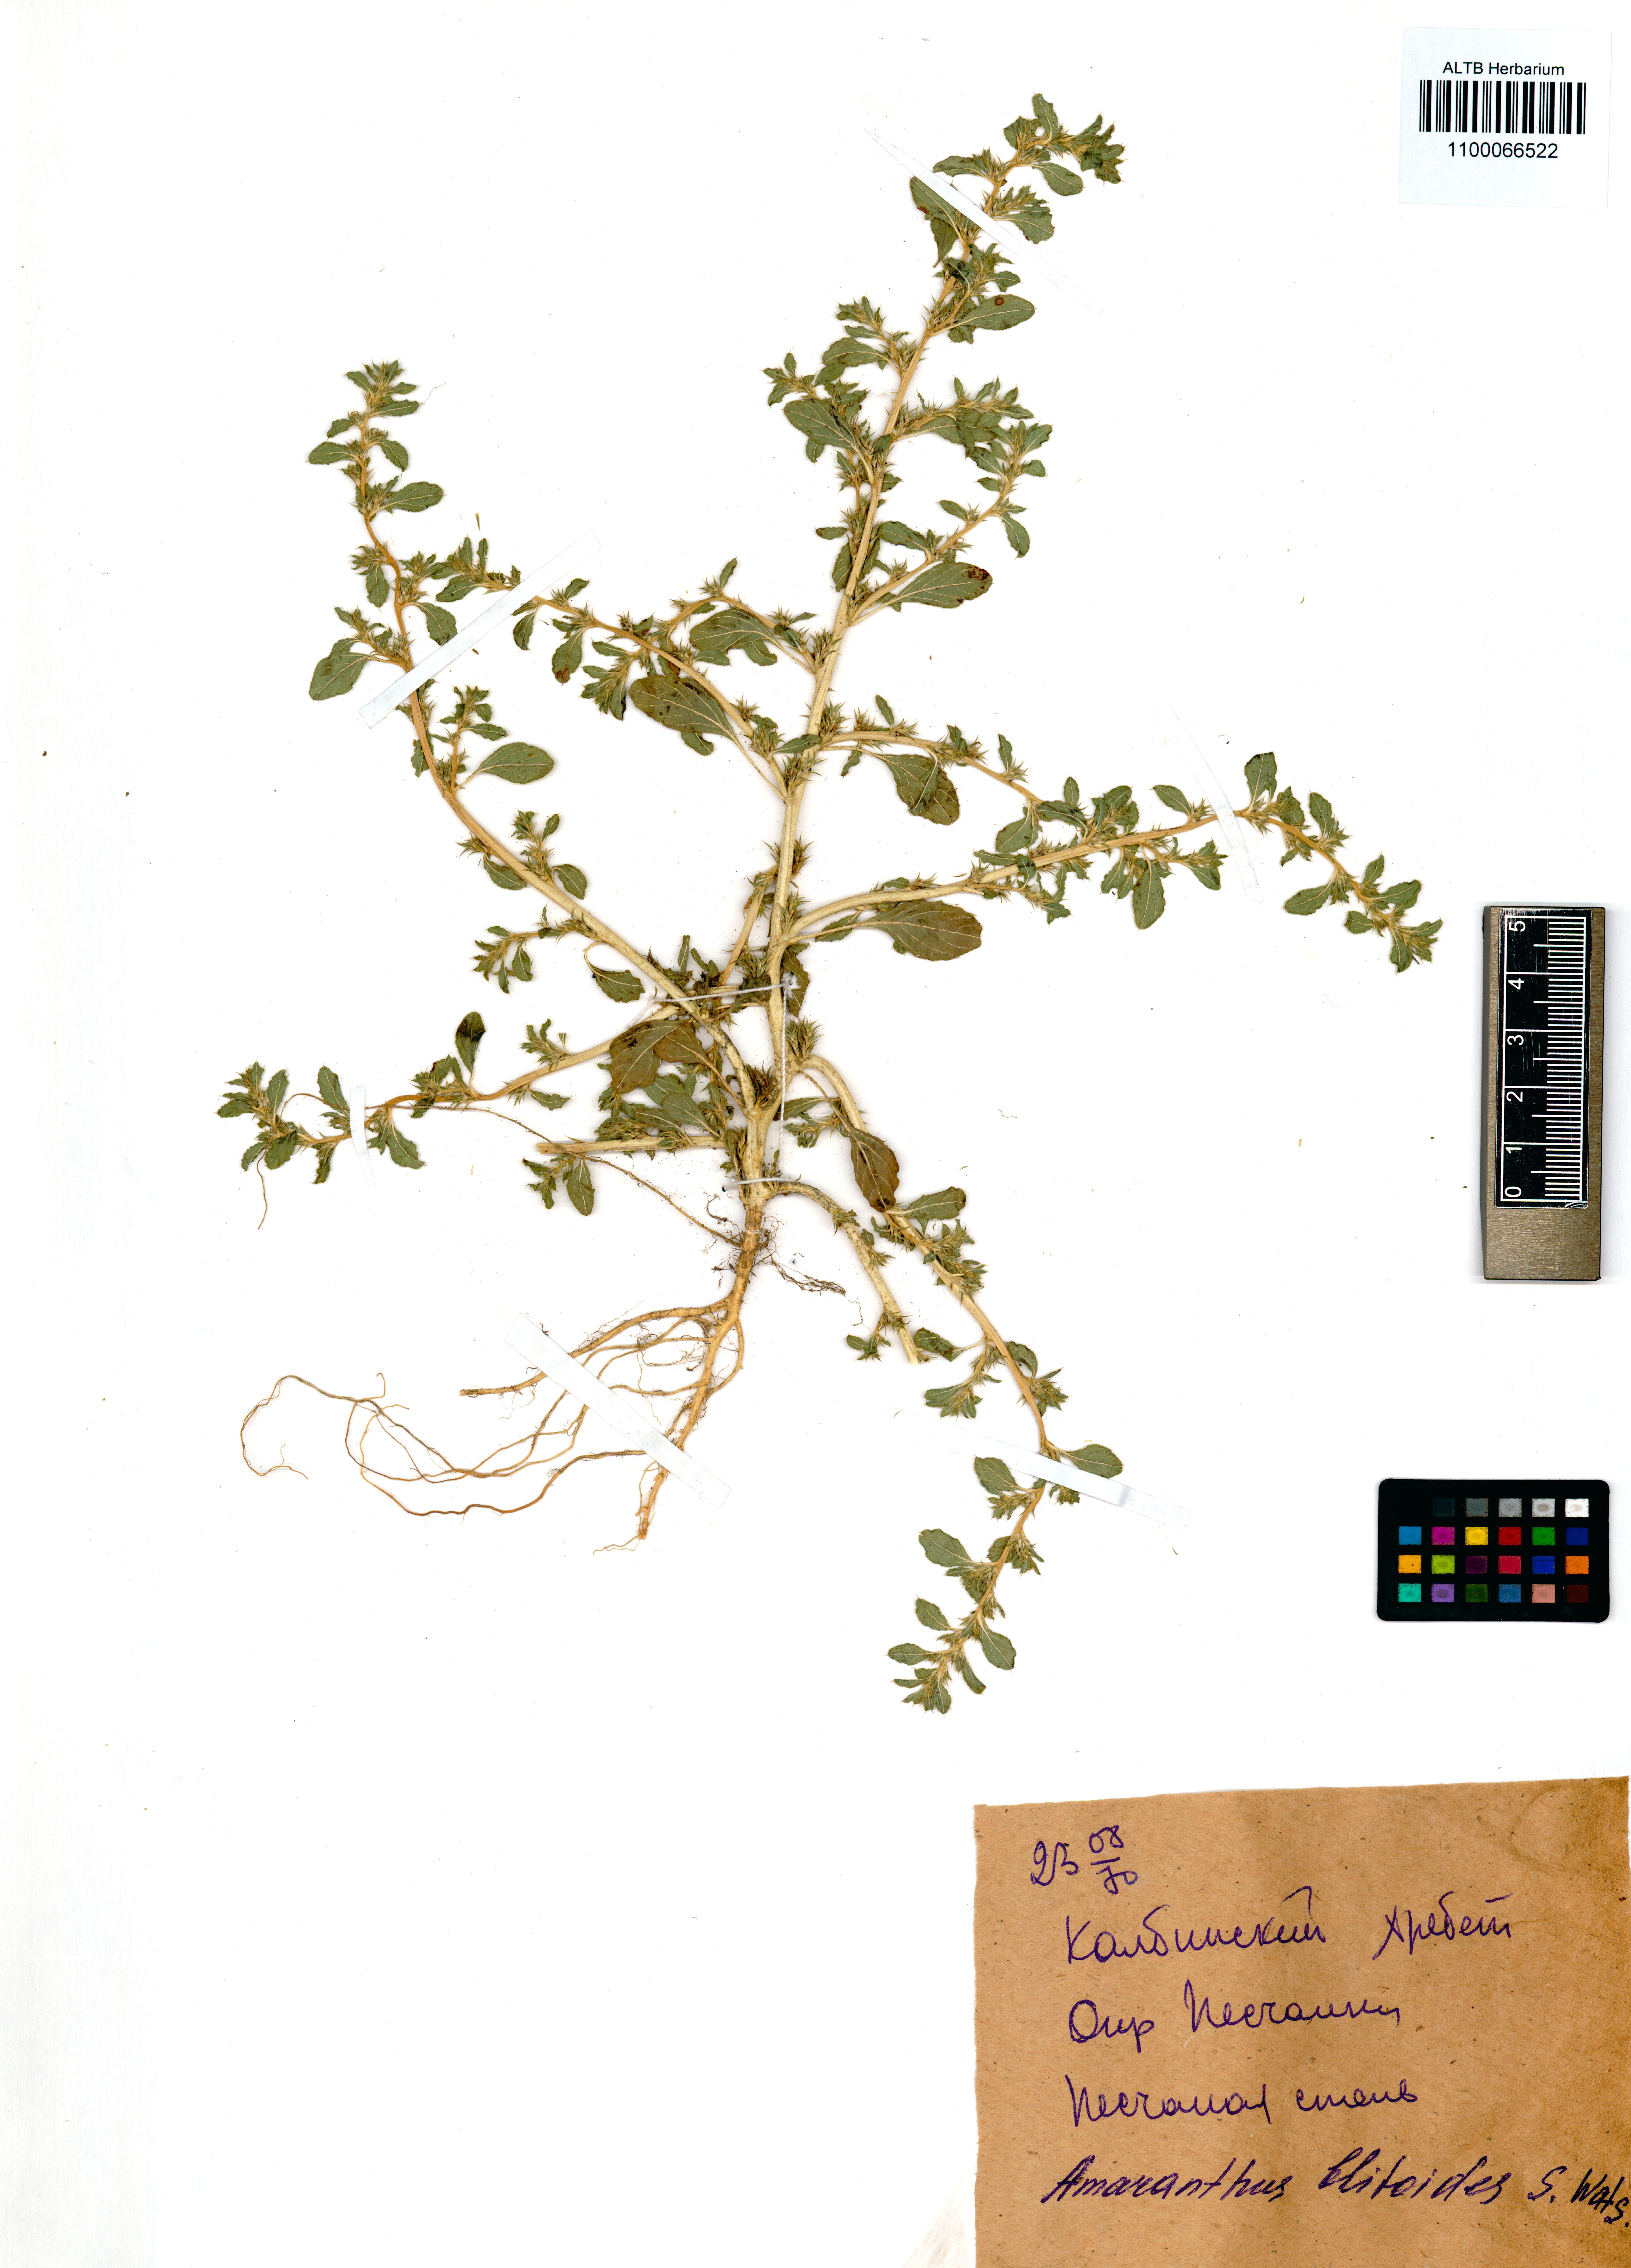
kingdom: Plantae
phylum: Tracheophyta
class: Magnoliopsida
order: Caryophyllales
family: Amaranthaceae
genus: Amaranthus
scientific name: Amaranthus blitoides
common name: Prostrate pigweed
